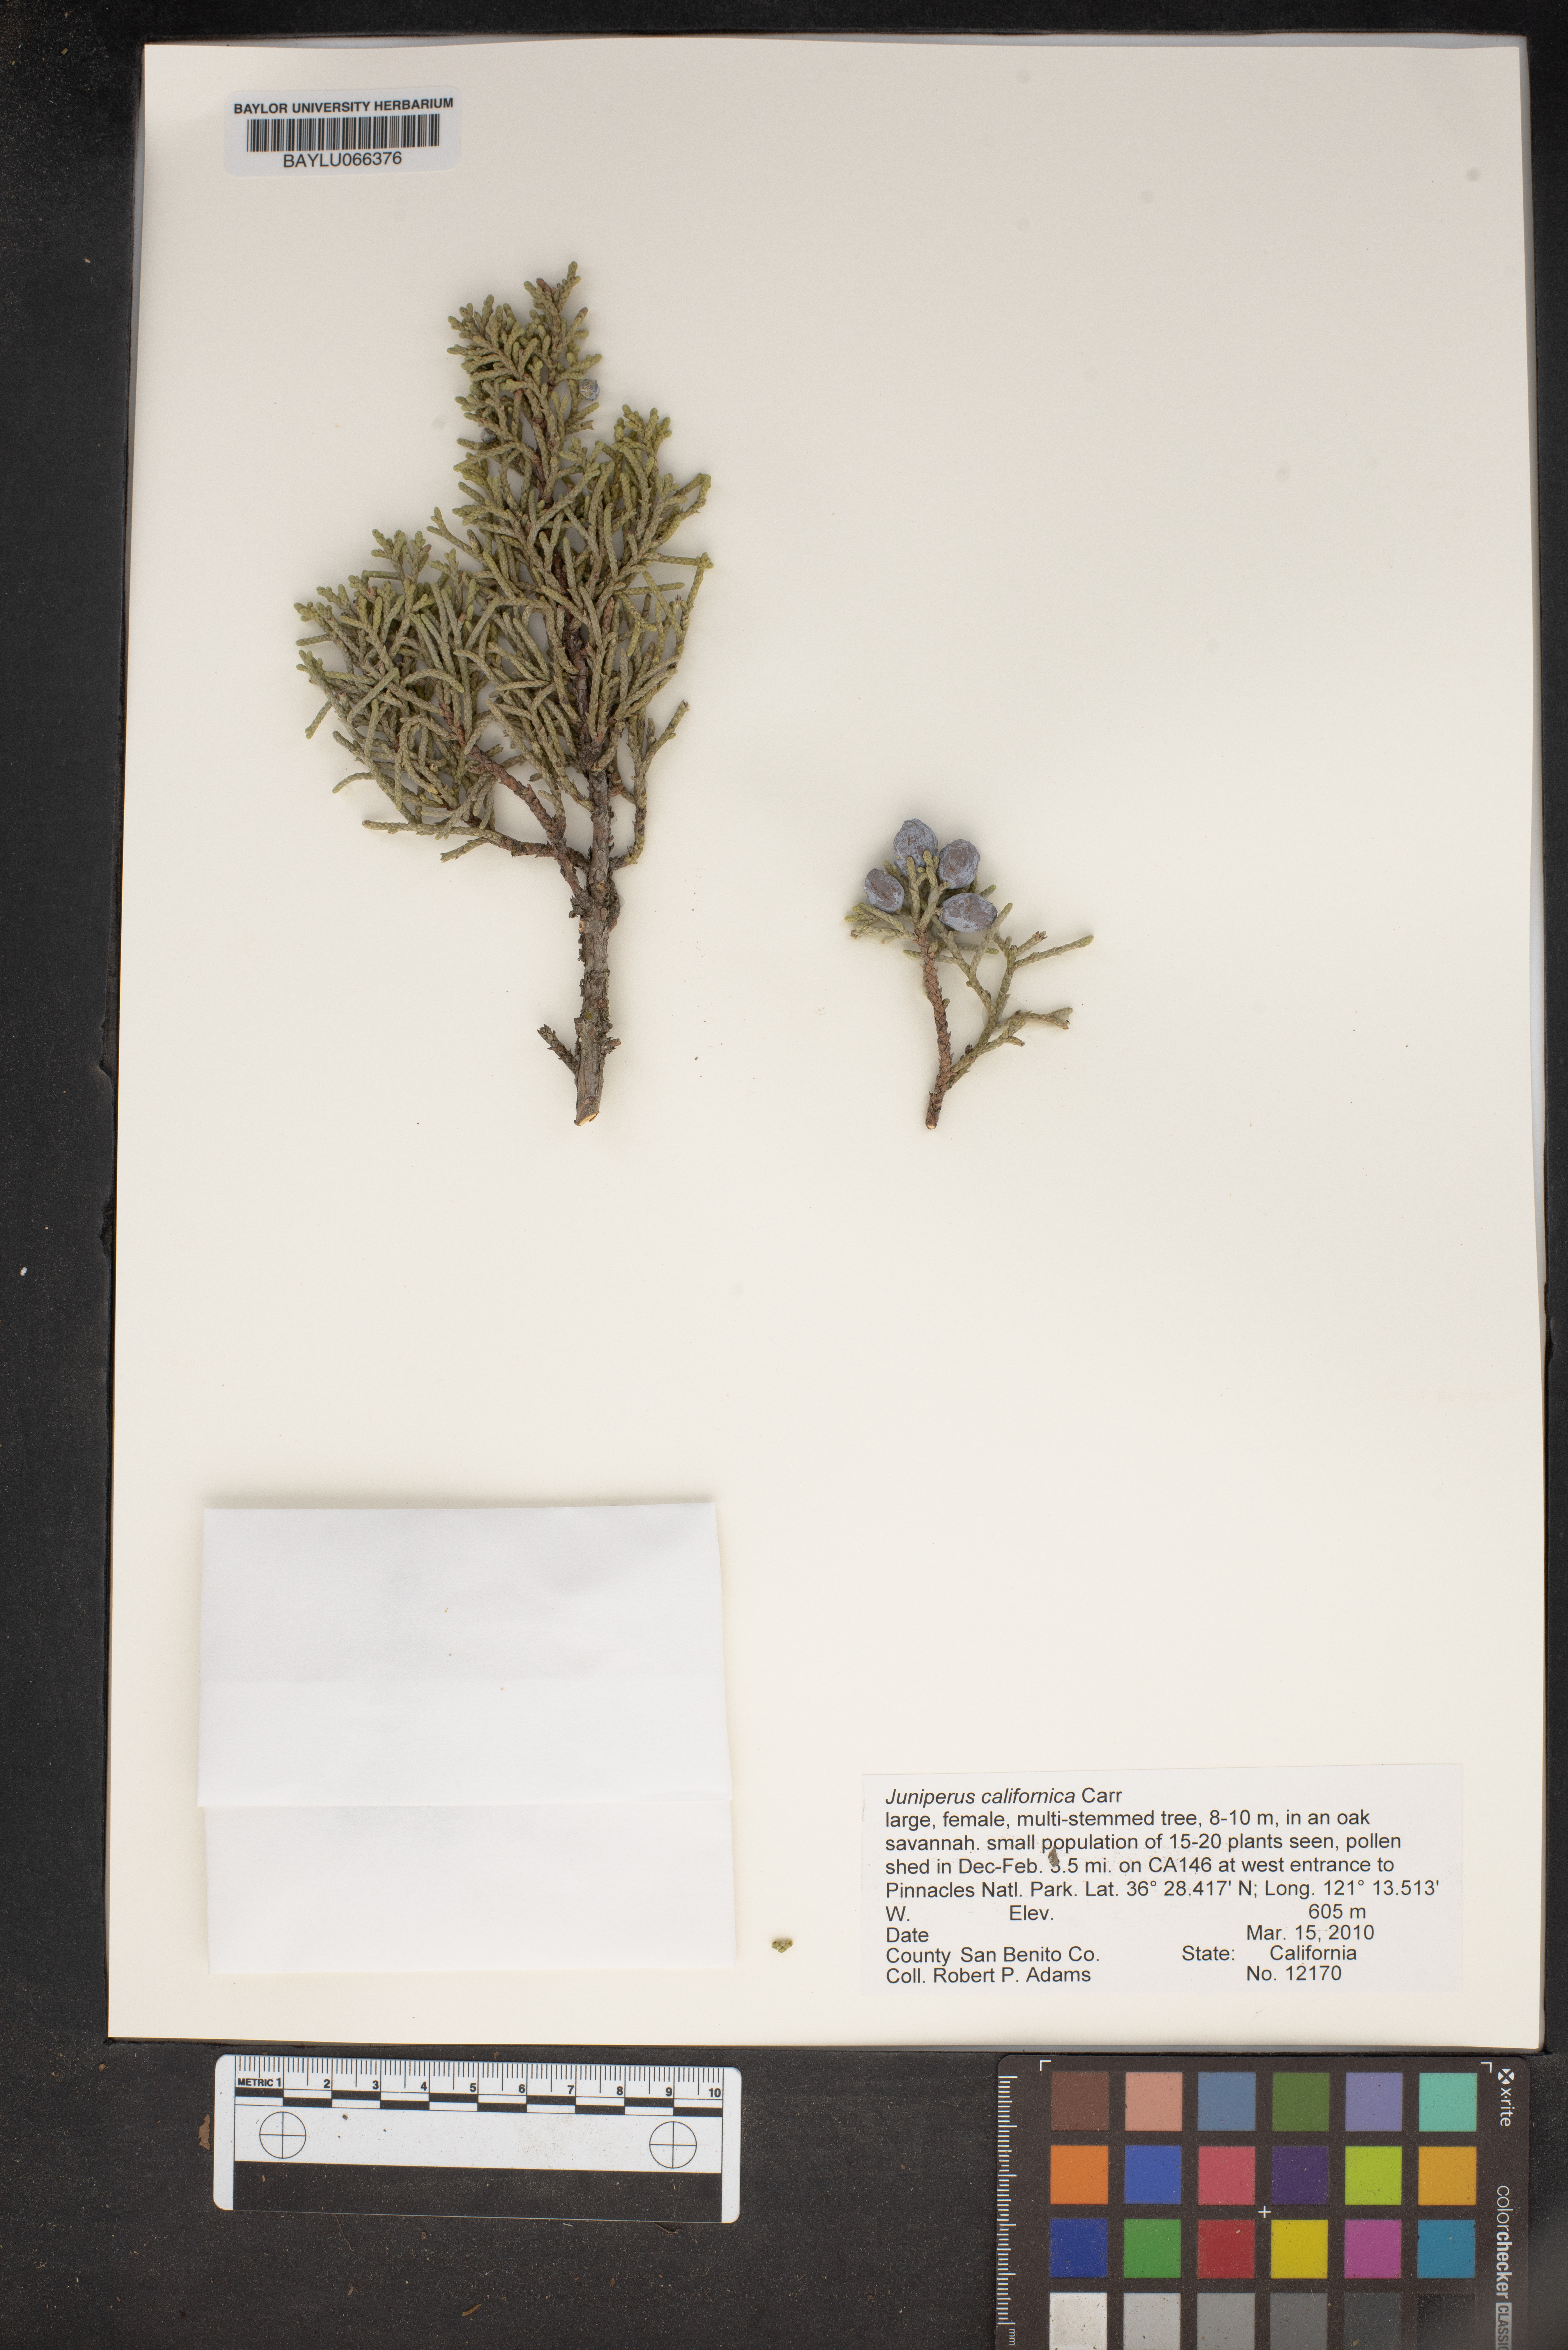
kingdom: Plantae
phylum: Tracheophyta
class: Pinopsida
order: Pinales
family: Cupressaceae
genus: Juniperus
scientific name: Juniperus californica
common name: California juniper
